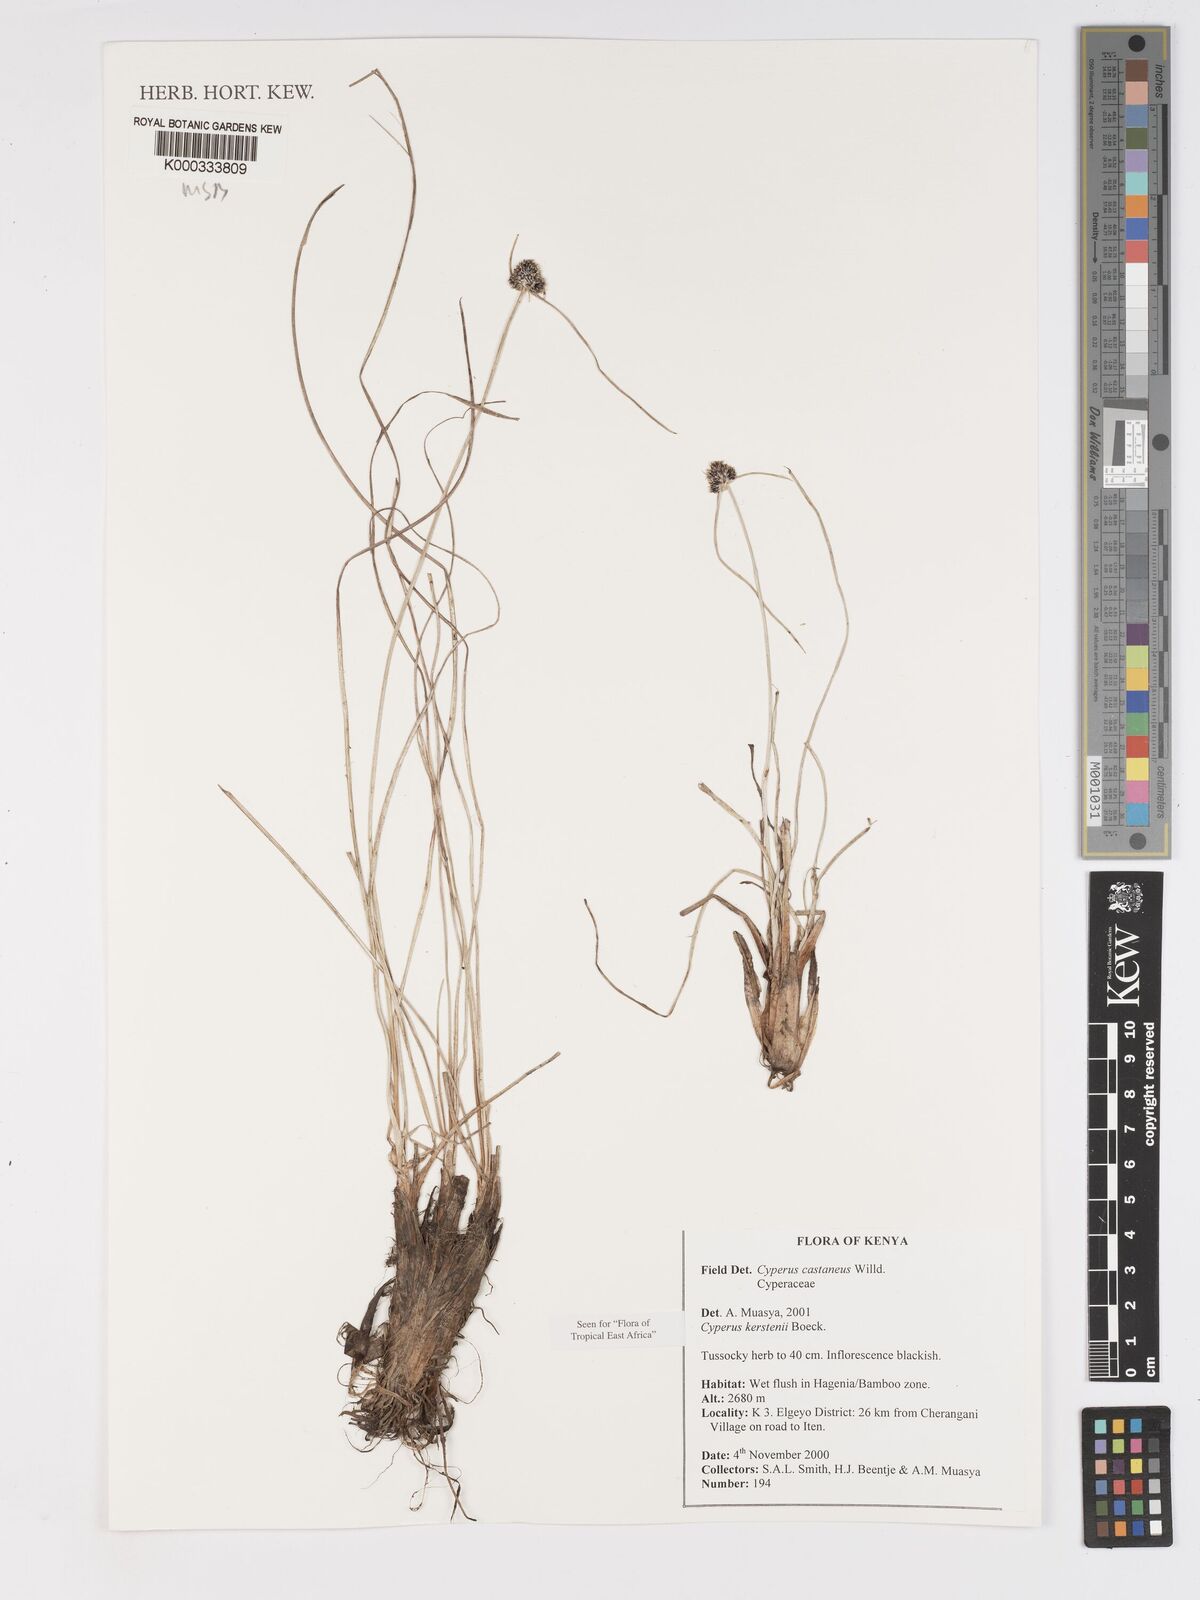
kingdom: Plantae
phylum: Tracheophyta
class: Liliopsida
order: Poales
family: Cyperaceae
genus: Cyperus
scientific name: Cyperus kerstenii
